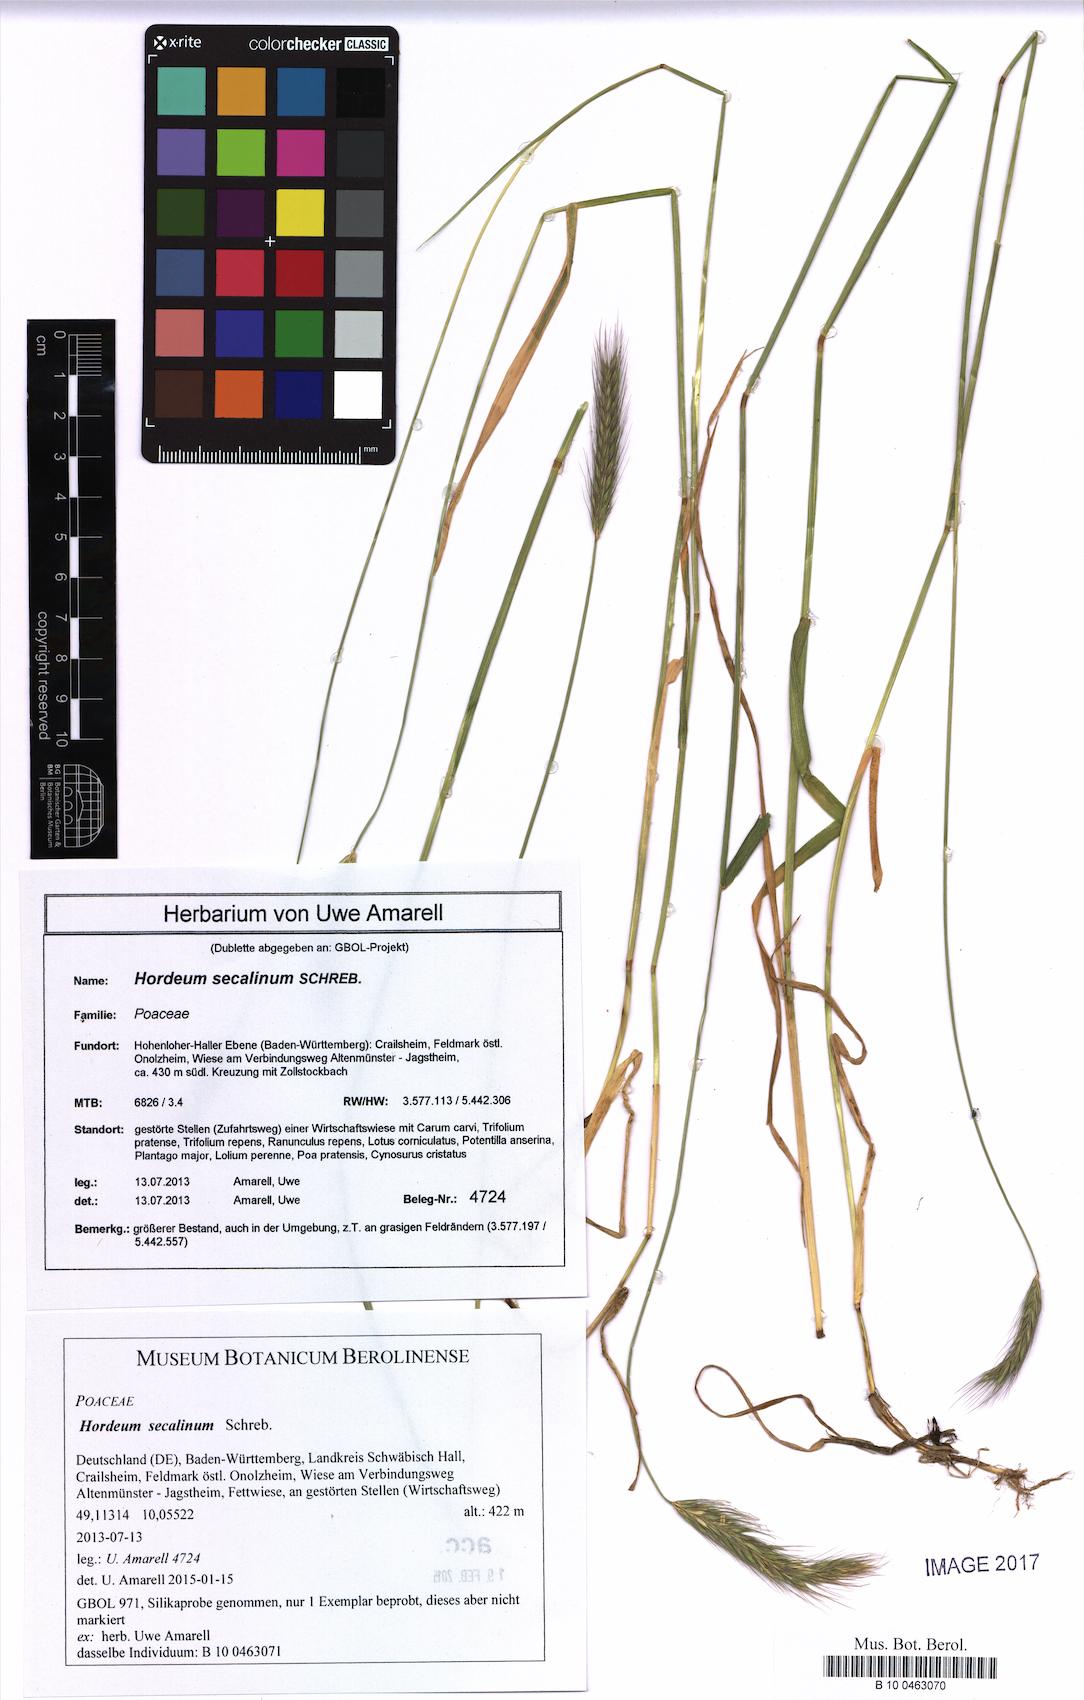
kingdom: Plantae
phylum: Tracheophyta
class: Liliopsida
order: Poales
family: Poaceae
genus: Hordeum
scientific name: Hordeum secalinum
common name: Meadow barley
